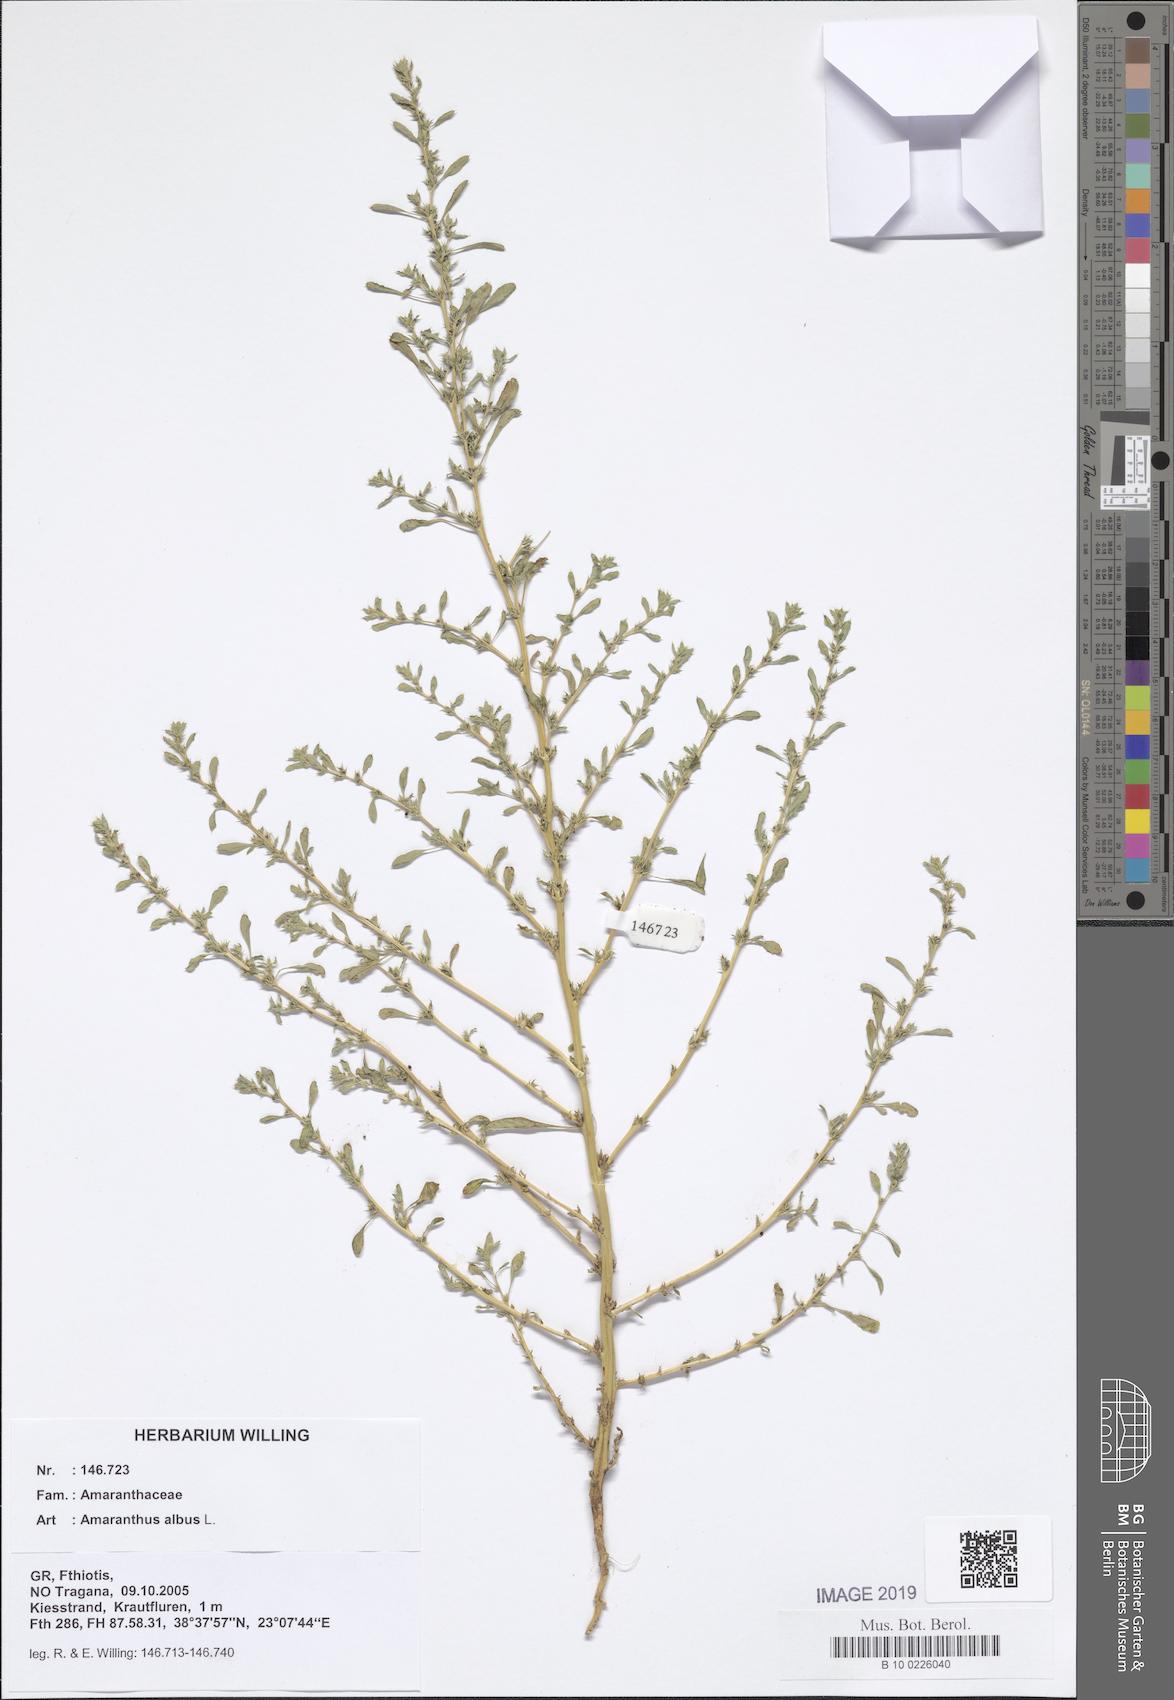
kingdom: Plantae
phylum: Tracheophyta
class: Magnoliopsida
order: Caryophyllales
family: Amaranthaceae
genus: Amaranthus
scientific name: Amaranthus albus
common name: White pigweed
